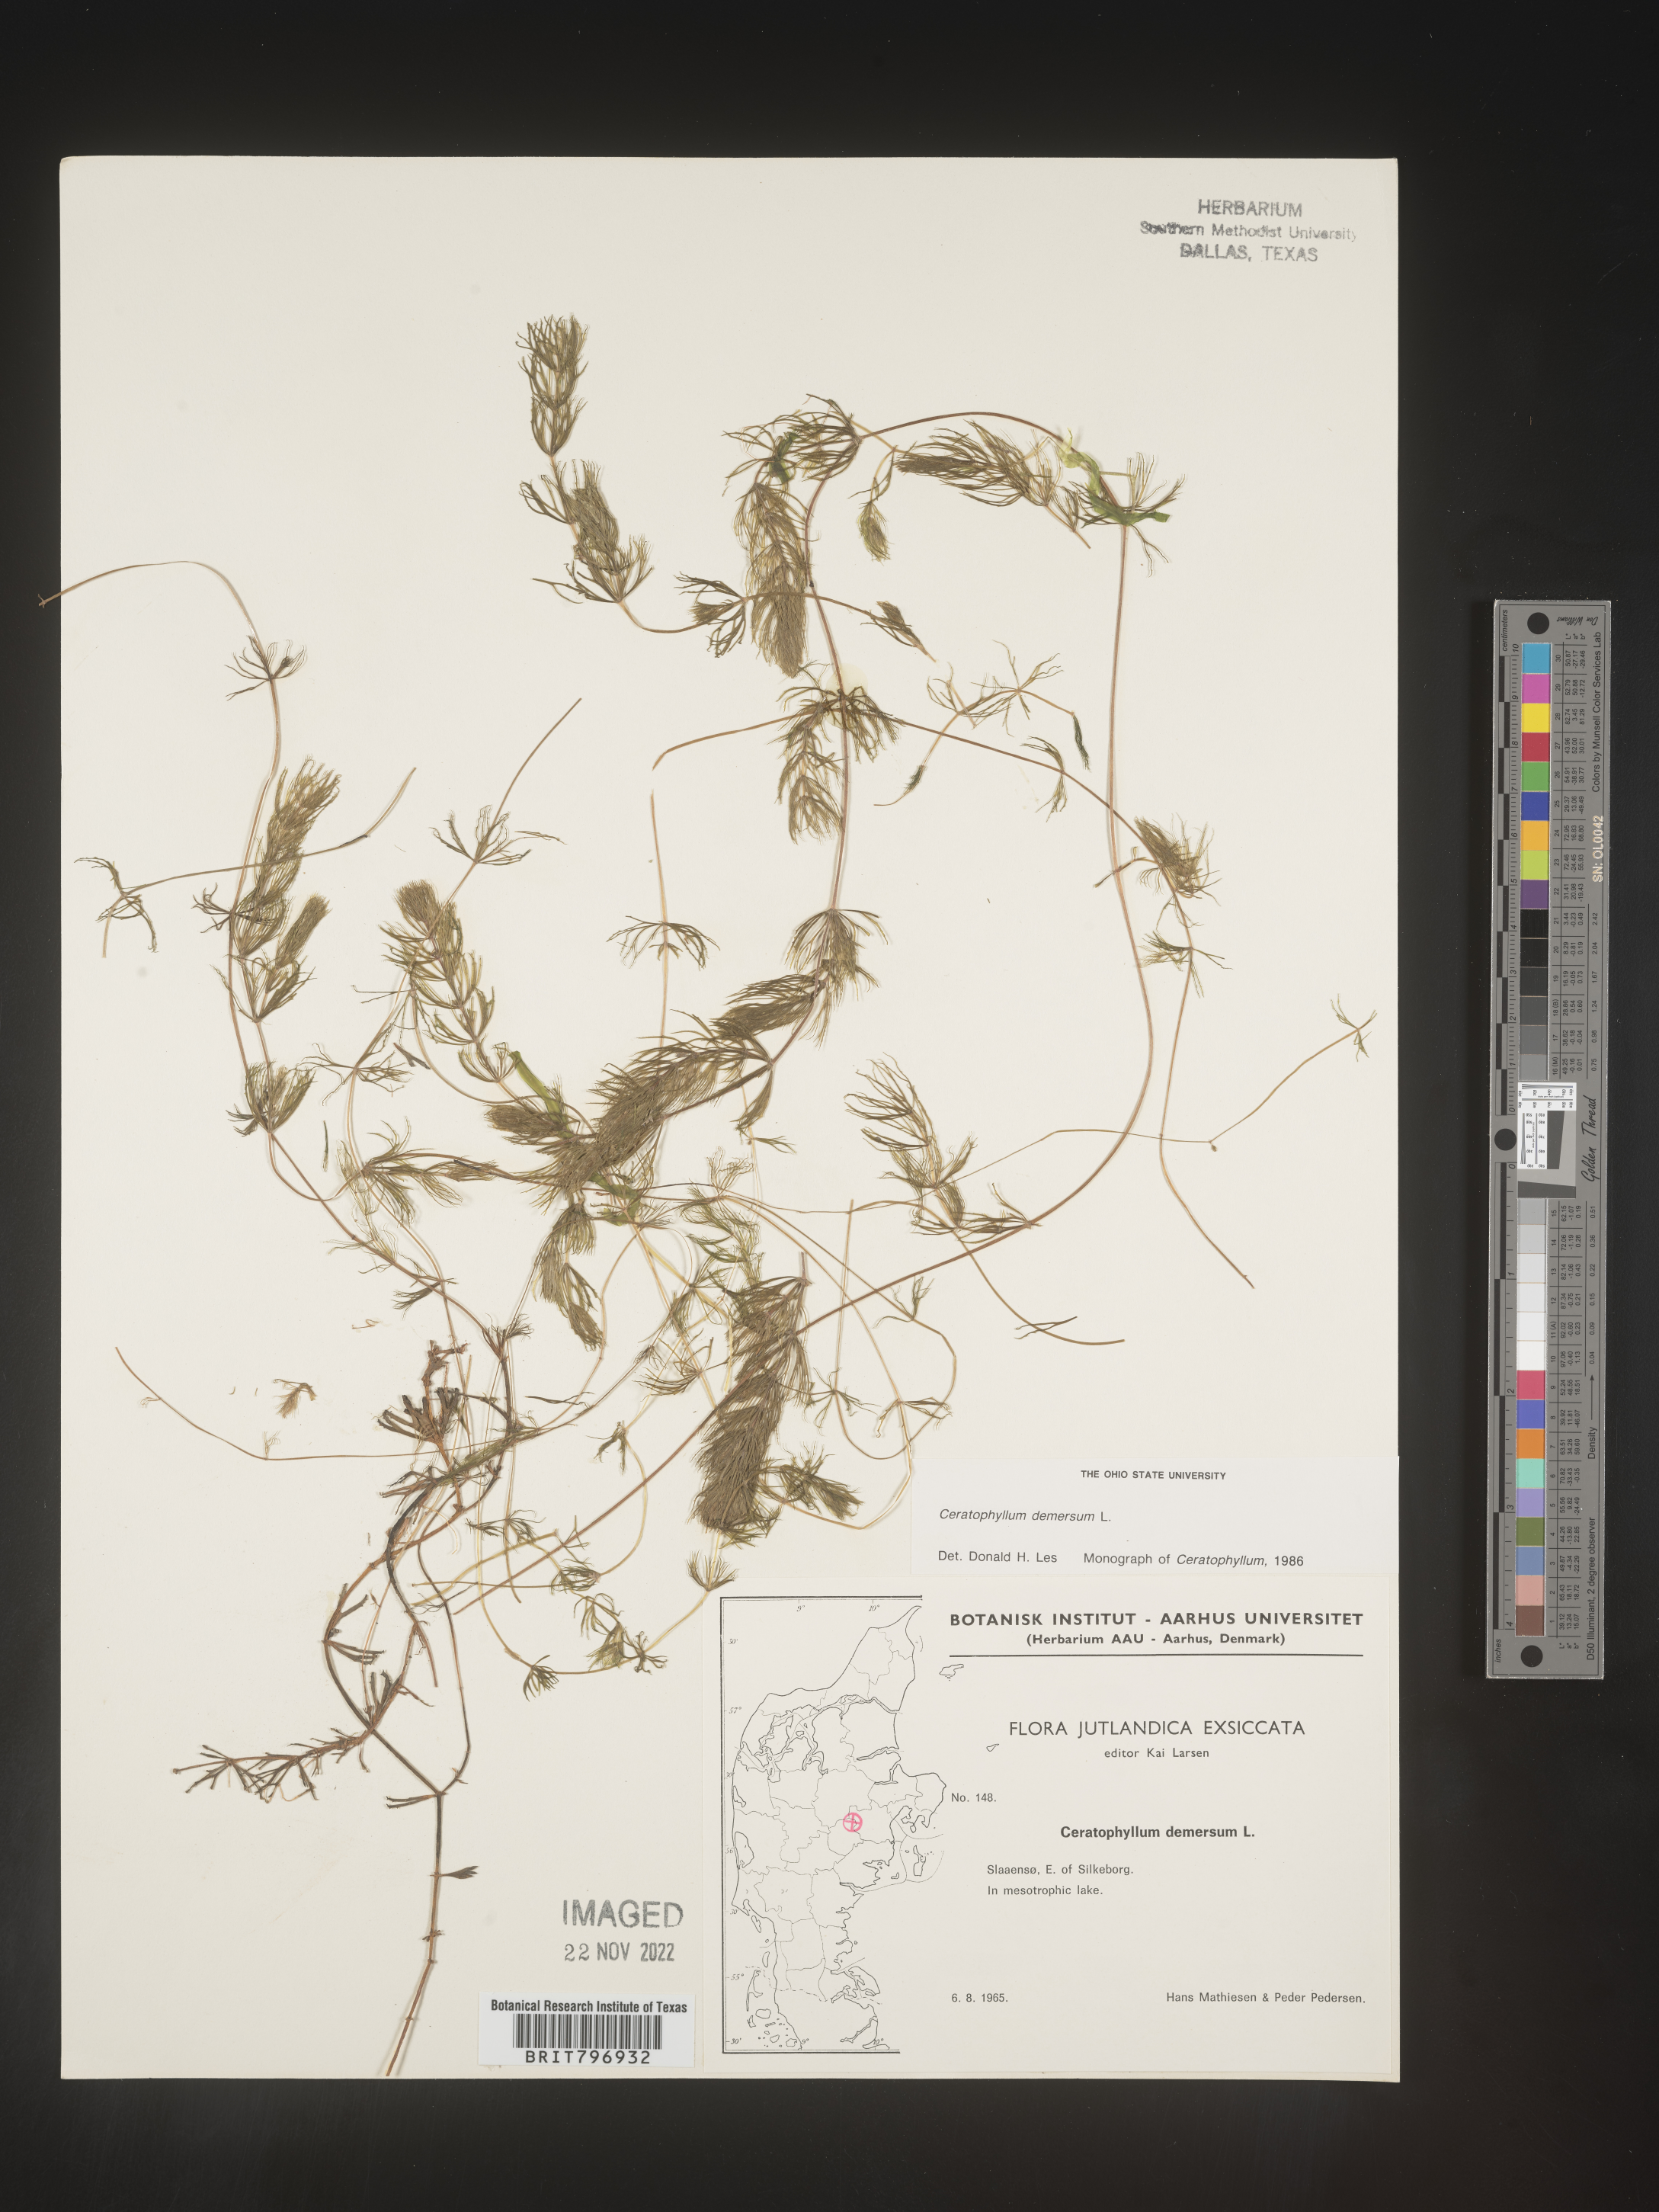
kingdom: Plantae
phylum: Tracheophyta
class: Magnoliopsida
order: Ceratophyllales
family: Ceratophyllaceae
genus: Ceratophyllum
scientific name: Ceratophyllum
